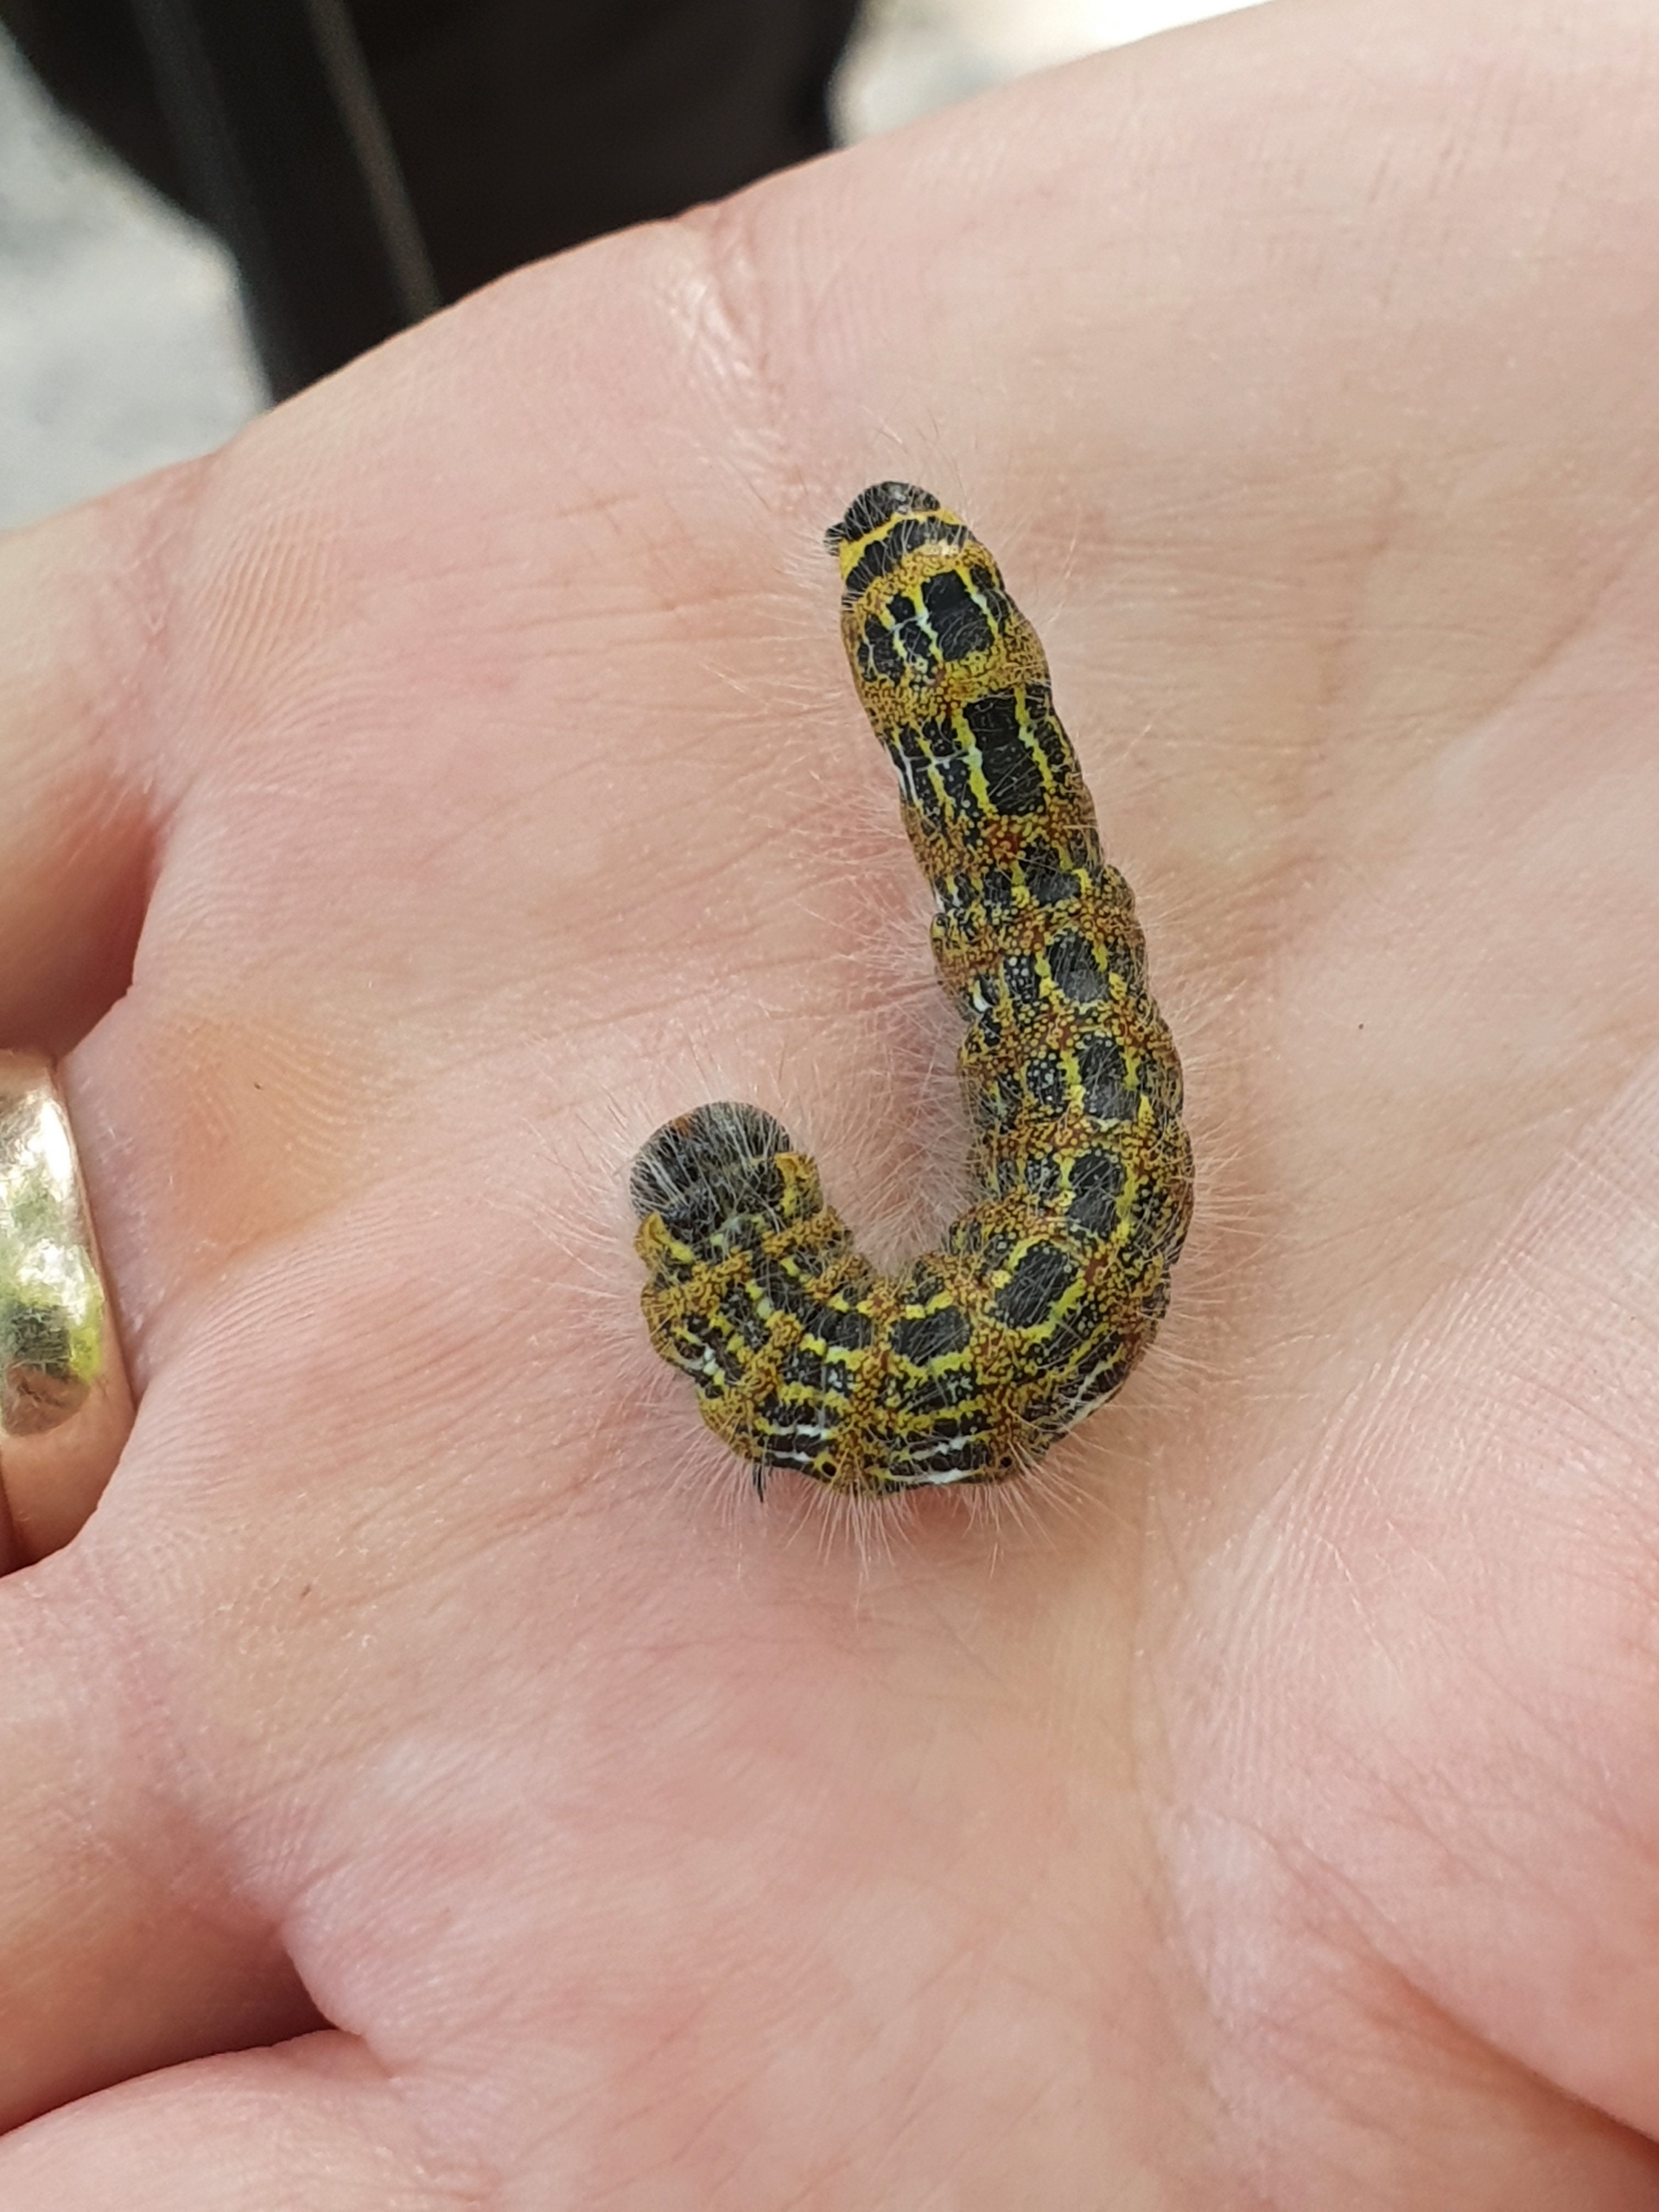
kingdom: Animalia
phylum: Arthropoda
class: Insecta
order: Lepidoptera
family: Notodontidae
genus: Phalera
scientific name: Phalera bucephala
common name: Måneplet
